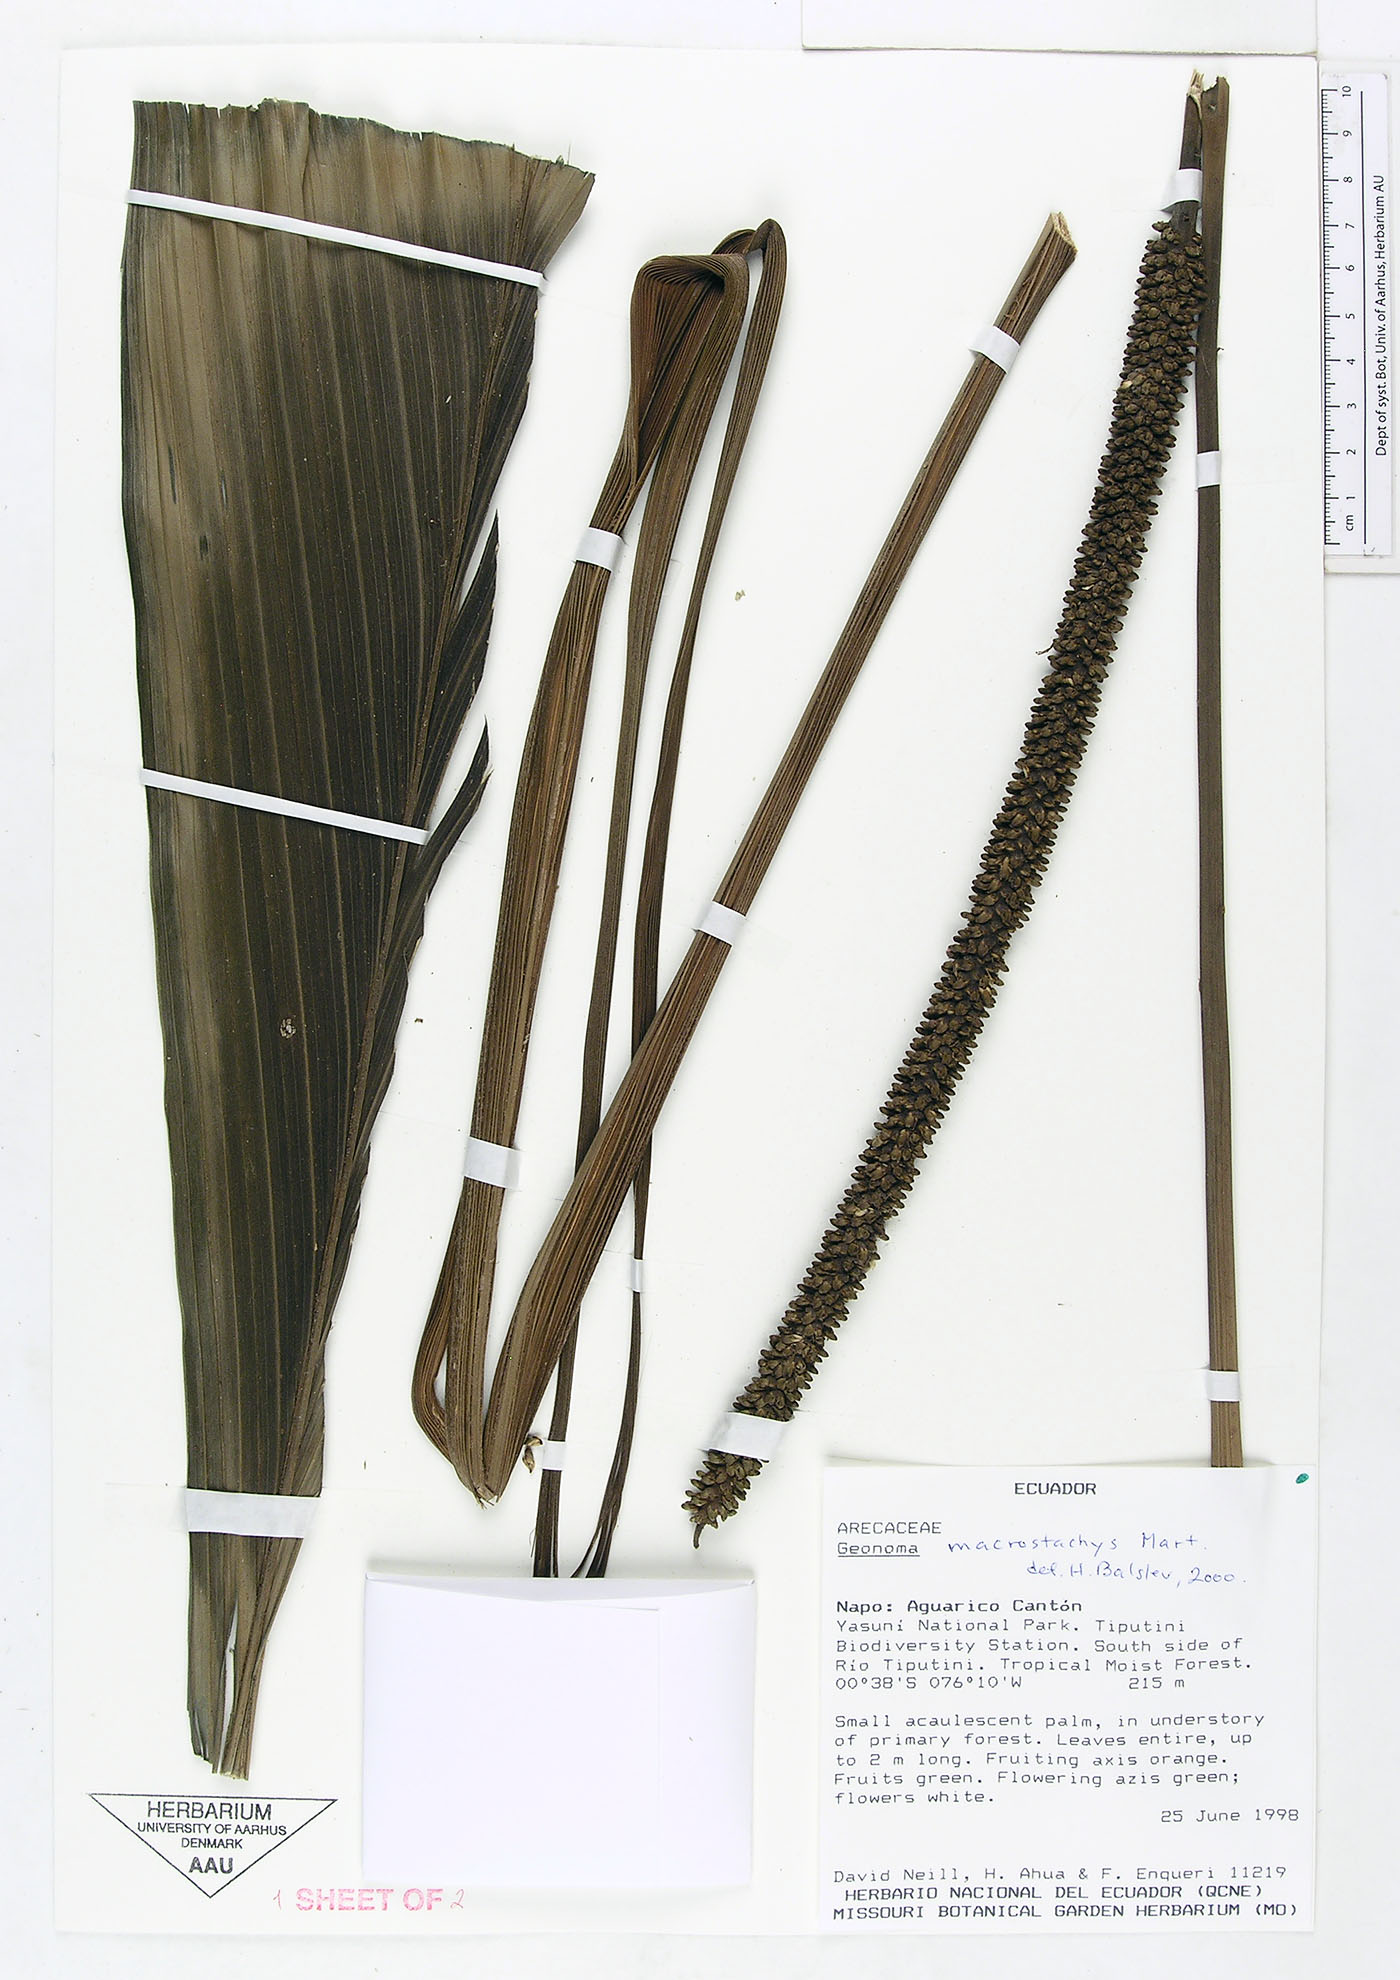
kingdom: Plantae
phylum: Tracheophyta
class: Liliopsida
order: Arecales
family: Arecaceae
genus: Geonoma
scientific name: Geonoma macrostachys
